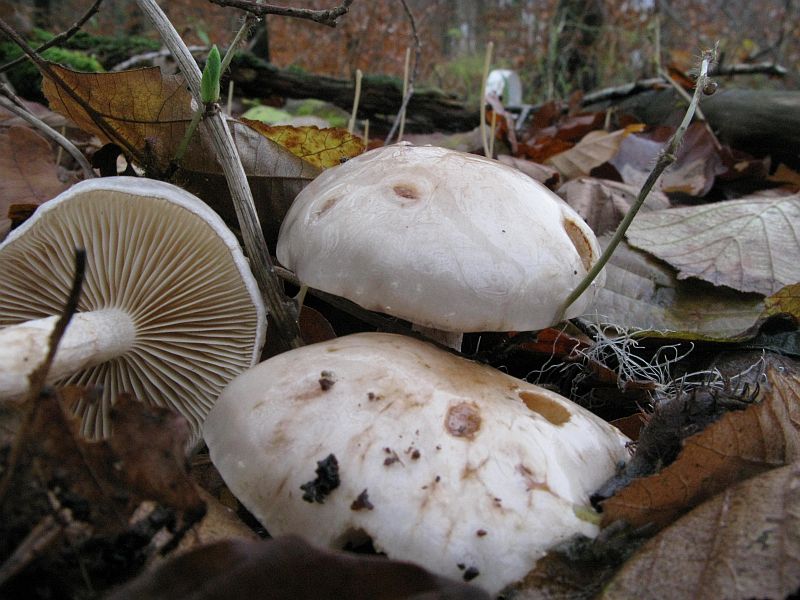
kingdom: Fungi
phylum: Basidiomycota
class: Agaricomycetes
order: Agaricales
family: Strophariaceae
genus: Pholiota
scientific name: Pholiota lenta
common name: løv-skælhat
